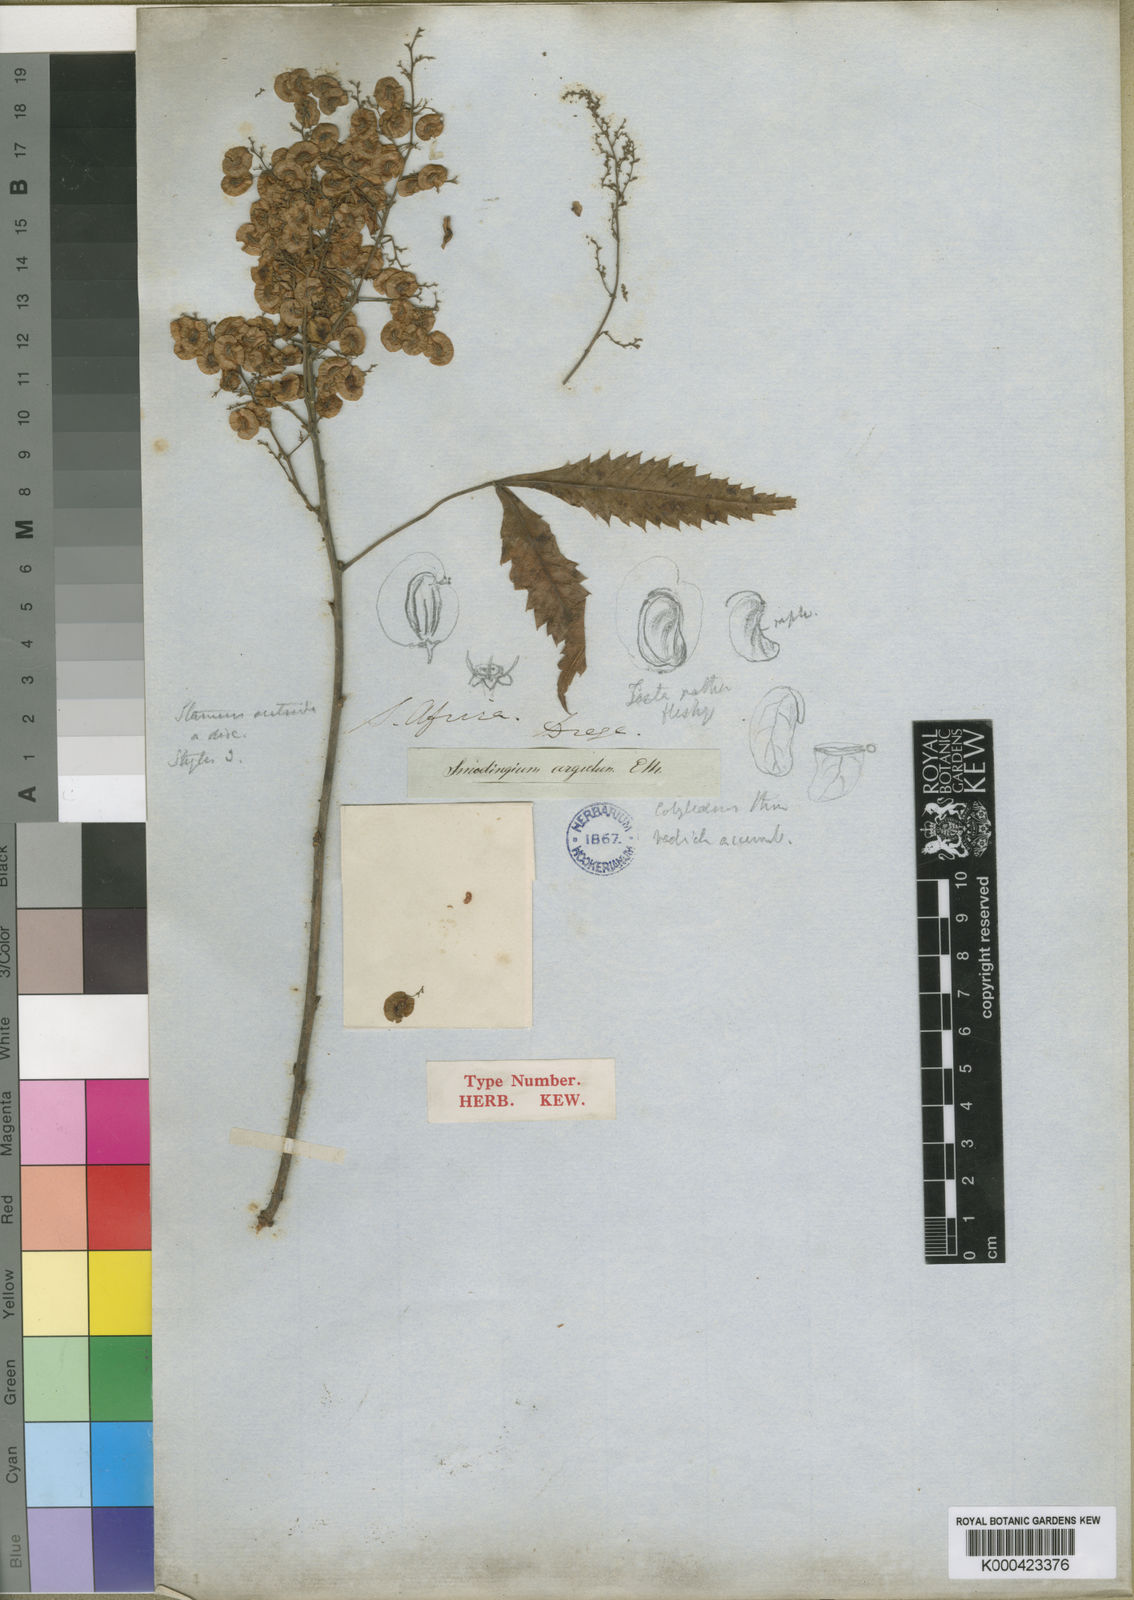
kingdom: Plantae
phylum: Tracheophyta
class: Magnoliopsida
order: Sapindales
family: Anacardiaceae
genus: Smodingium
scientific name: Smodingium argutum
